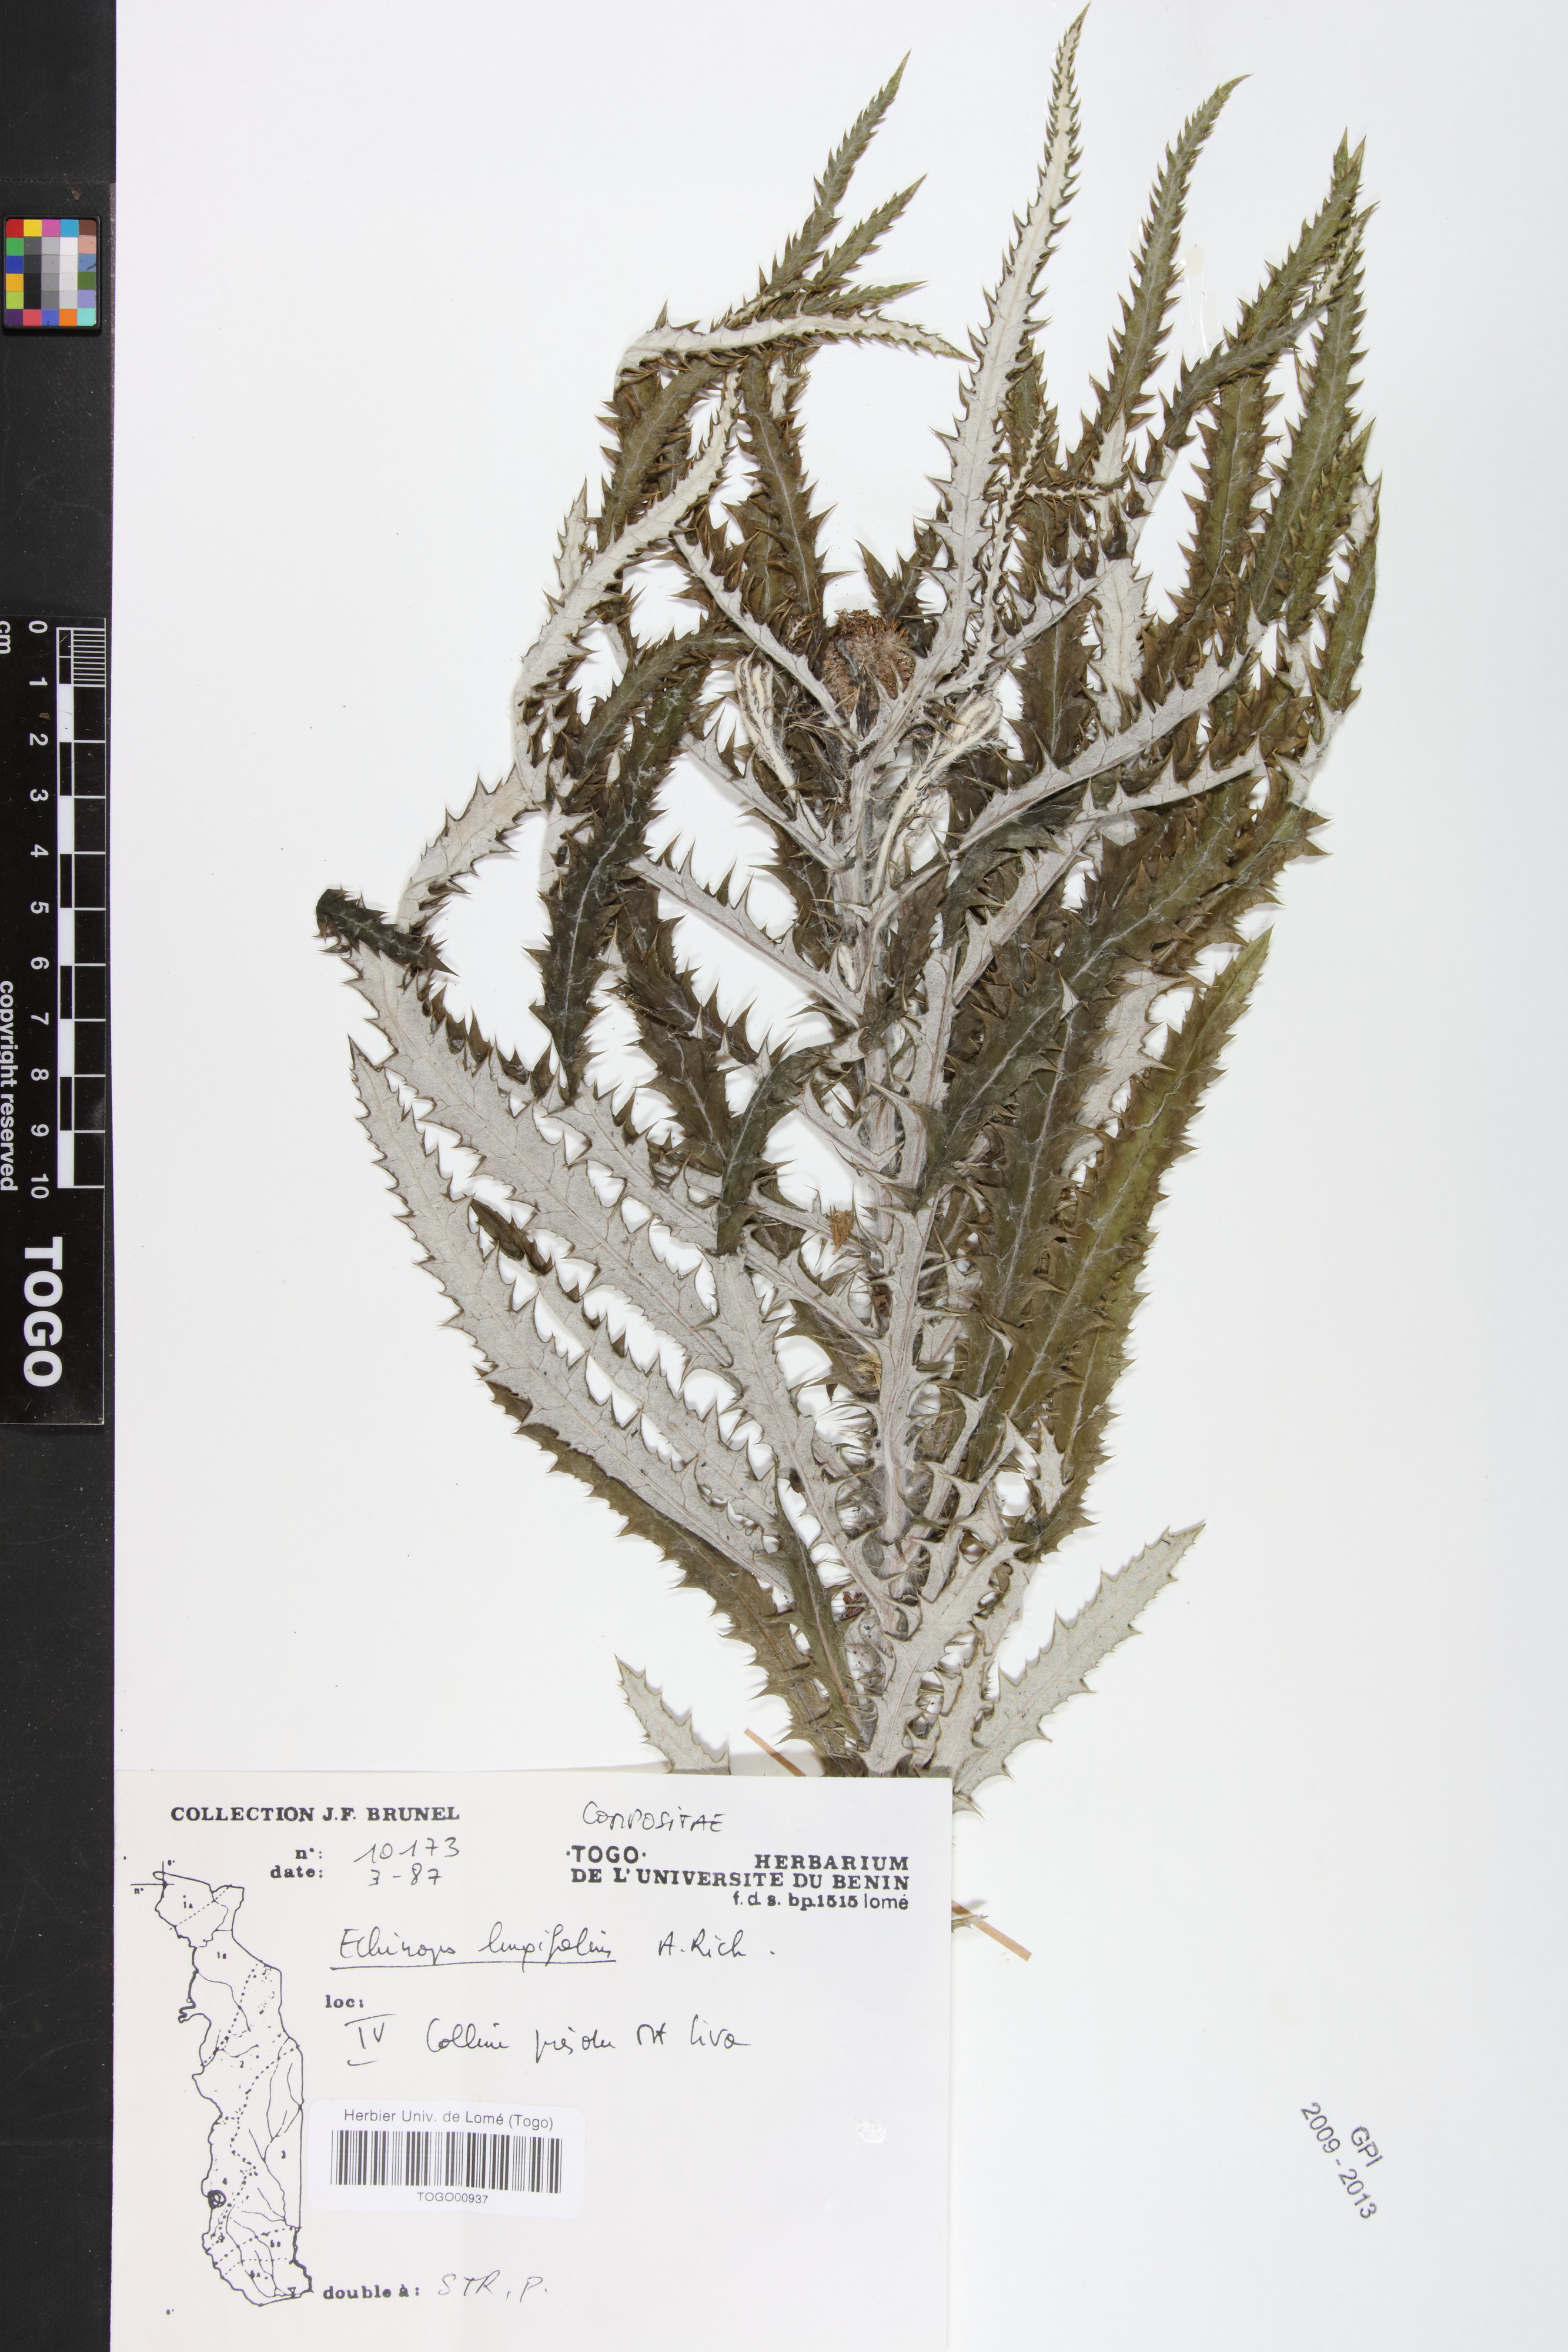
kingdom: Plantae
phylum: Tracheophyta
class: Magnoliopsida
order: Asterales
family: Asteraceae
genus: Echinops
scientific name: Echinops longifolius
